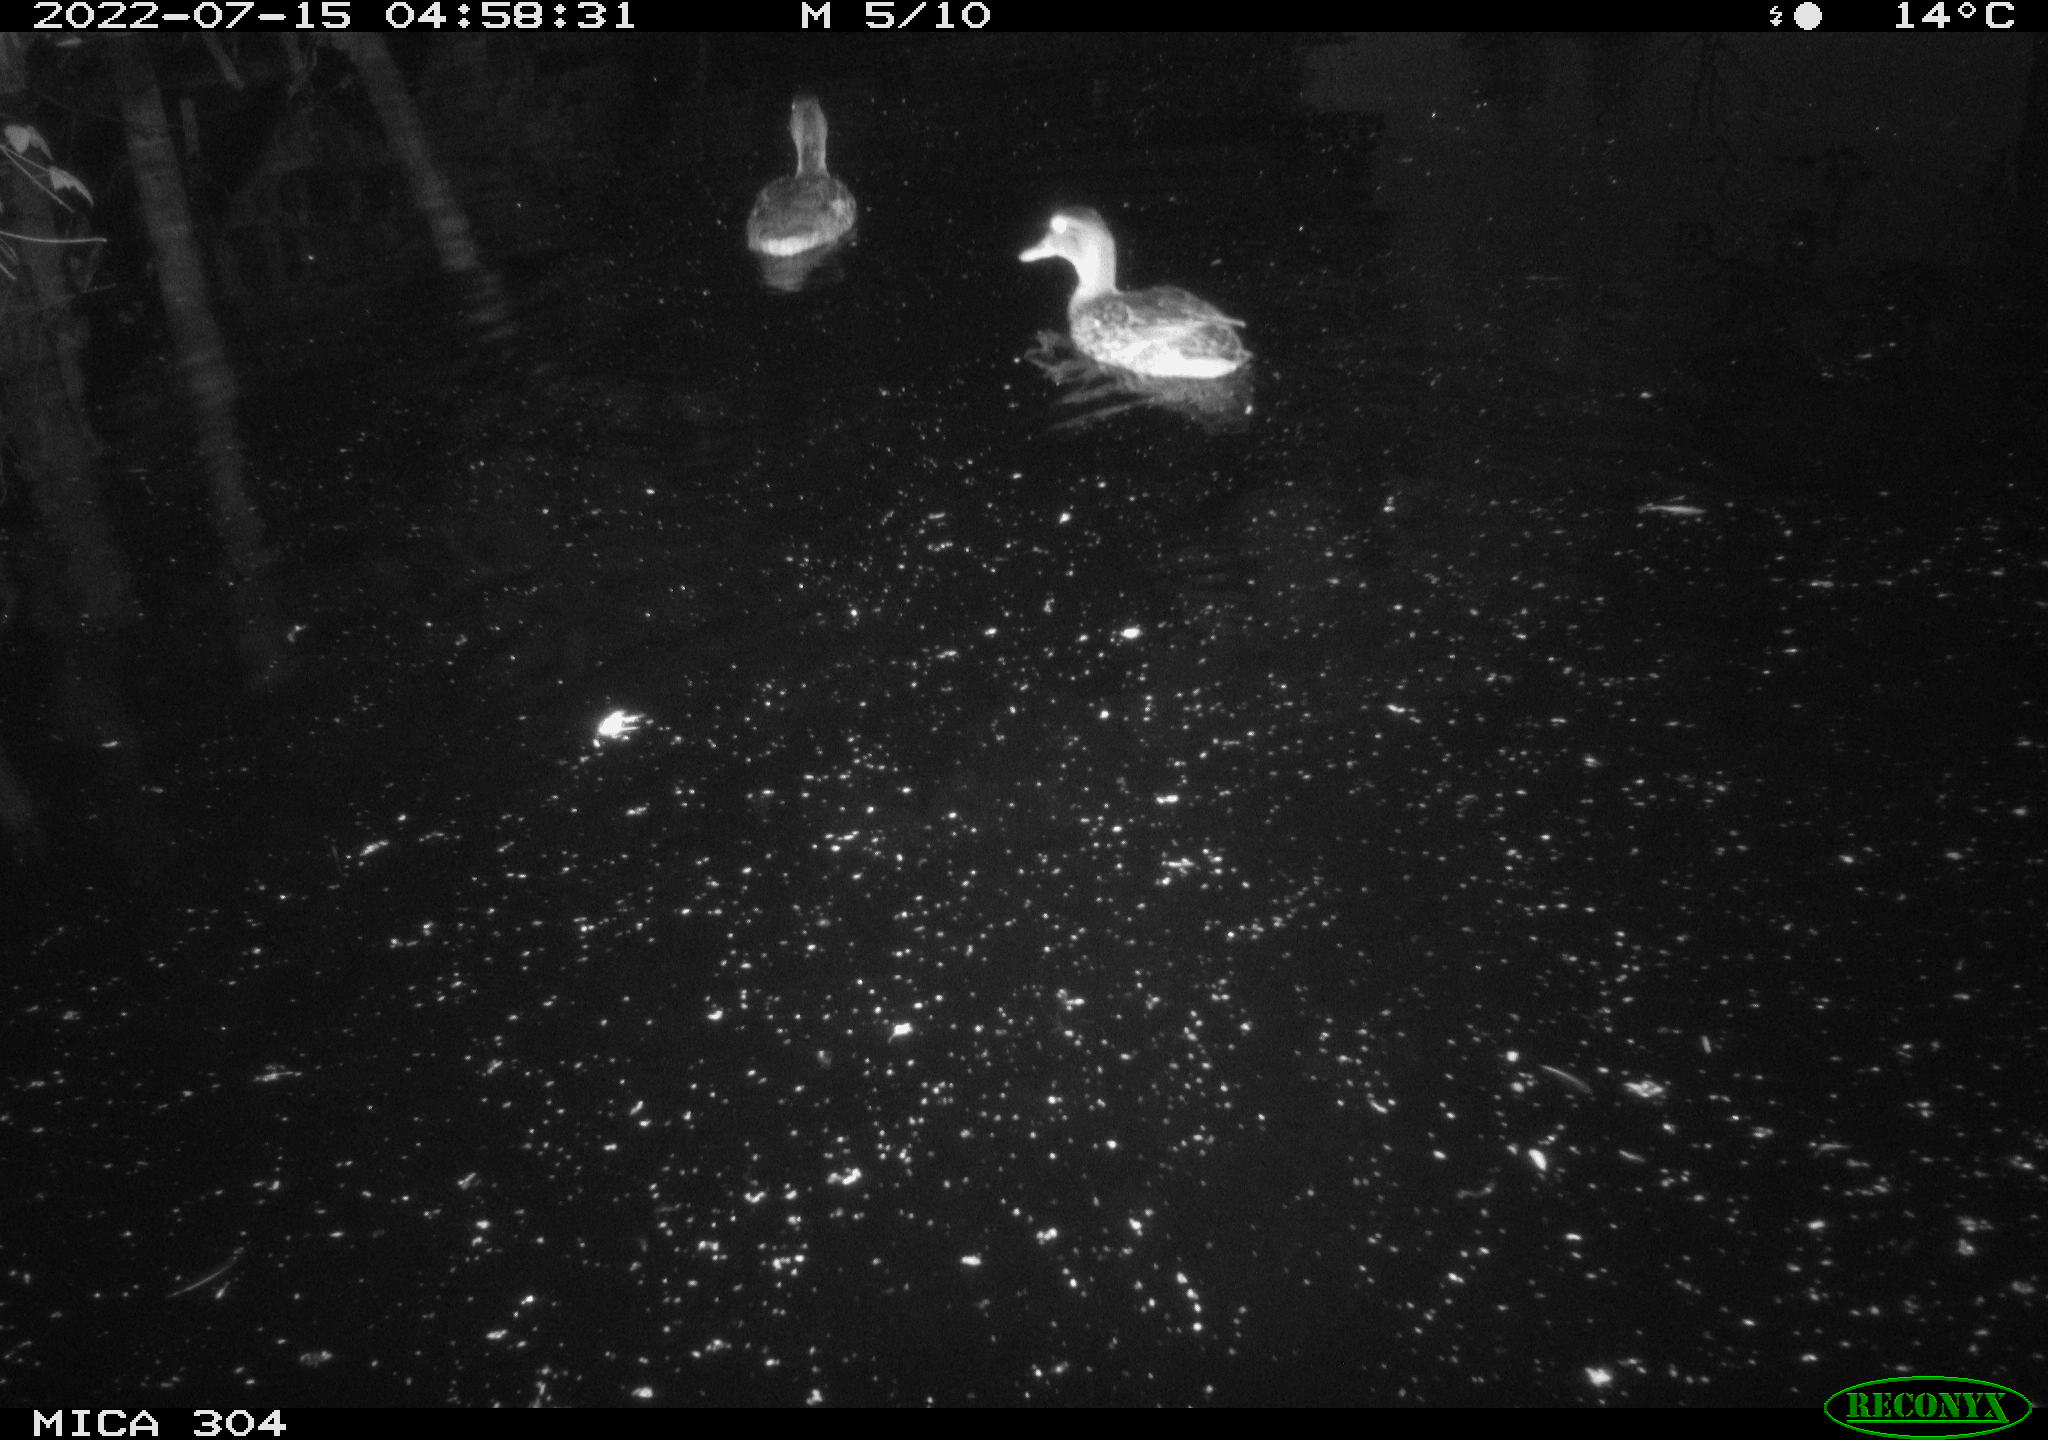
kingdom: Animalia
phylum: Chordata
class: Aves
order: Anseriformes
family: Anatidae
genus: Anas
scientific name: Anas platyrhynchos
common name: Mallard
